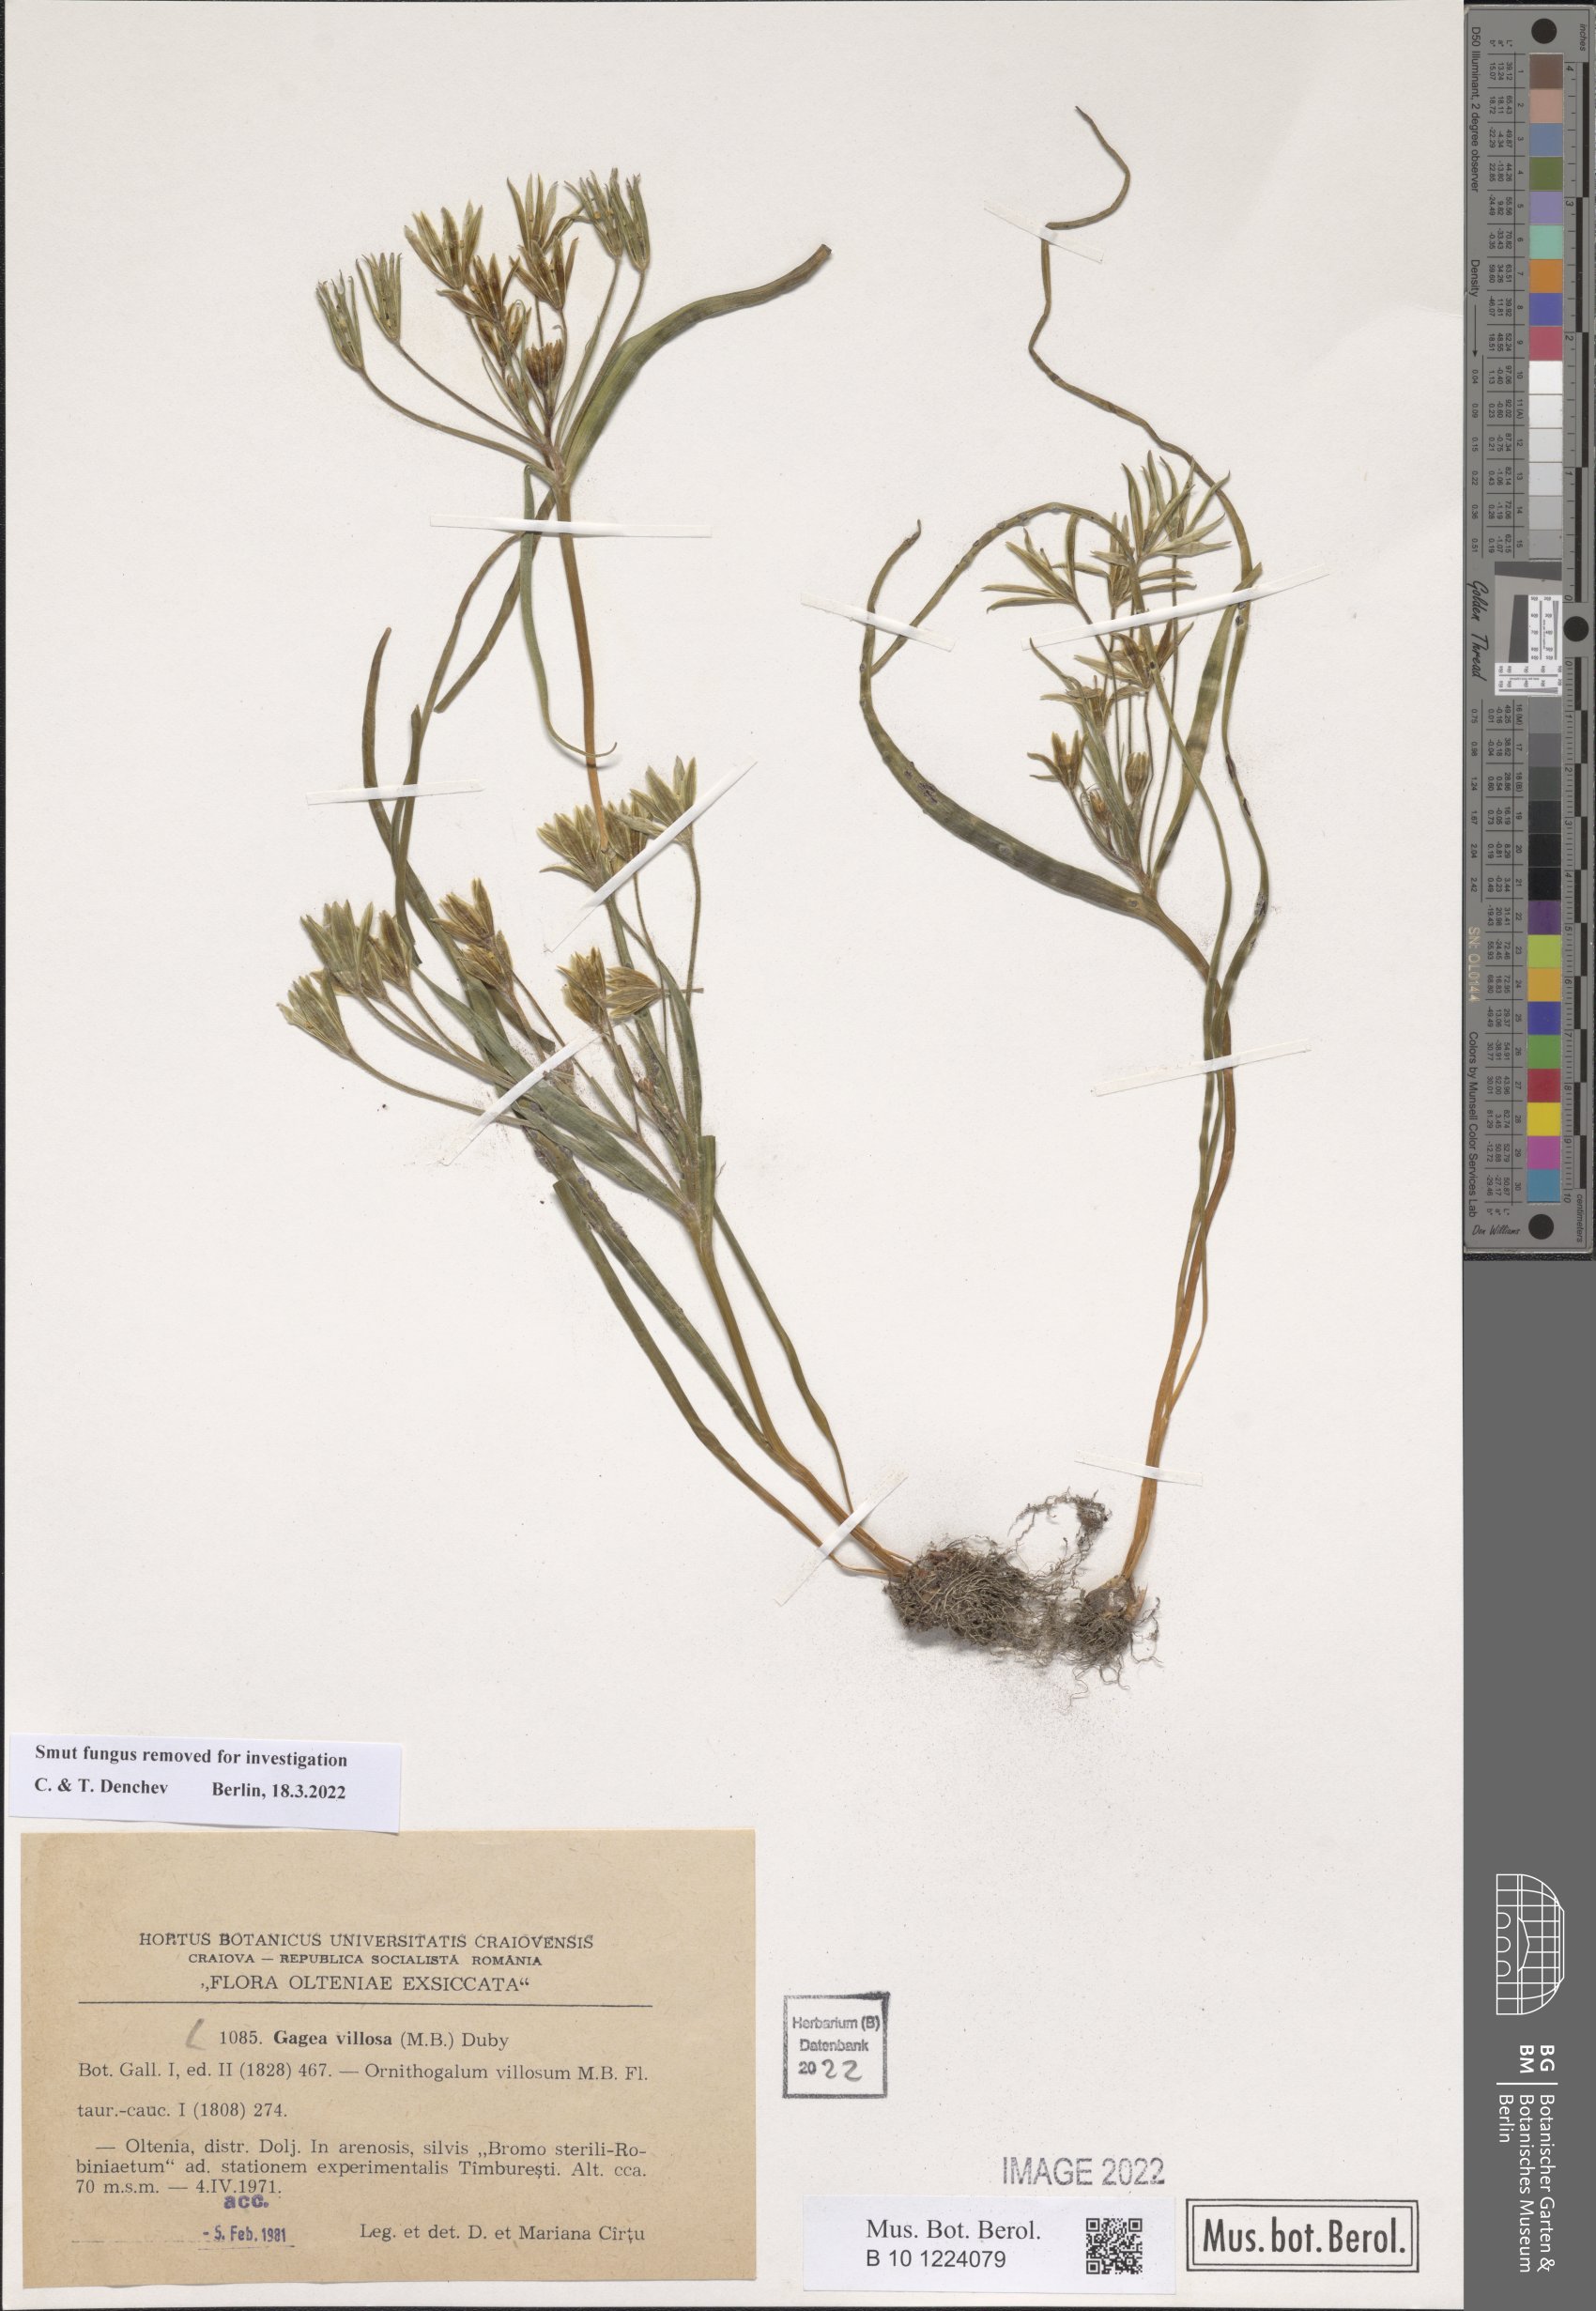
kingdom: Plantae
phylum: Tracheophyta
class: Liliopsida
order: Liliales
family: Liliaceae
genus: Gagea
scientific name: Gagea villosa
